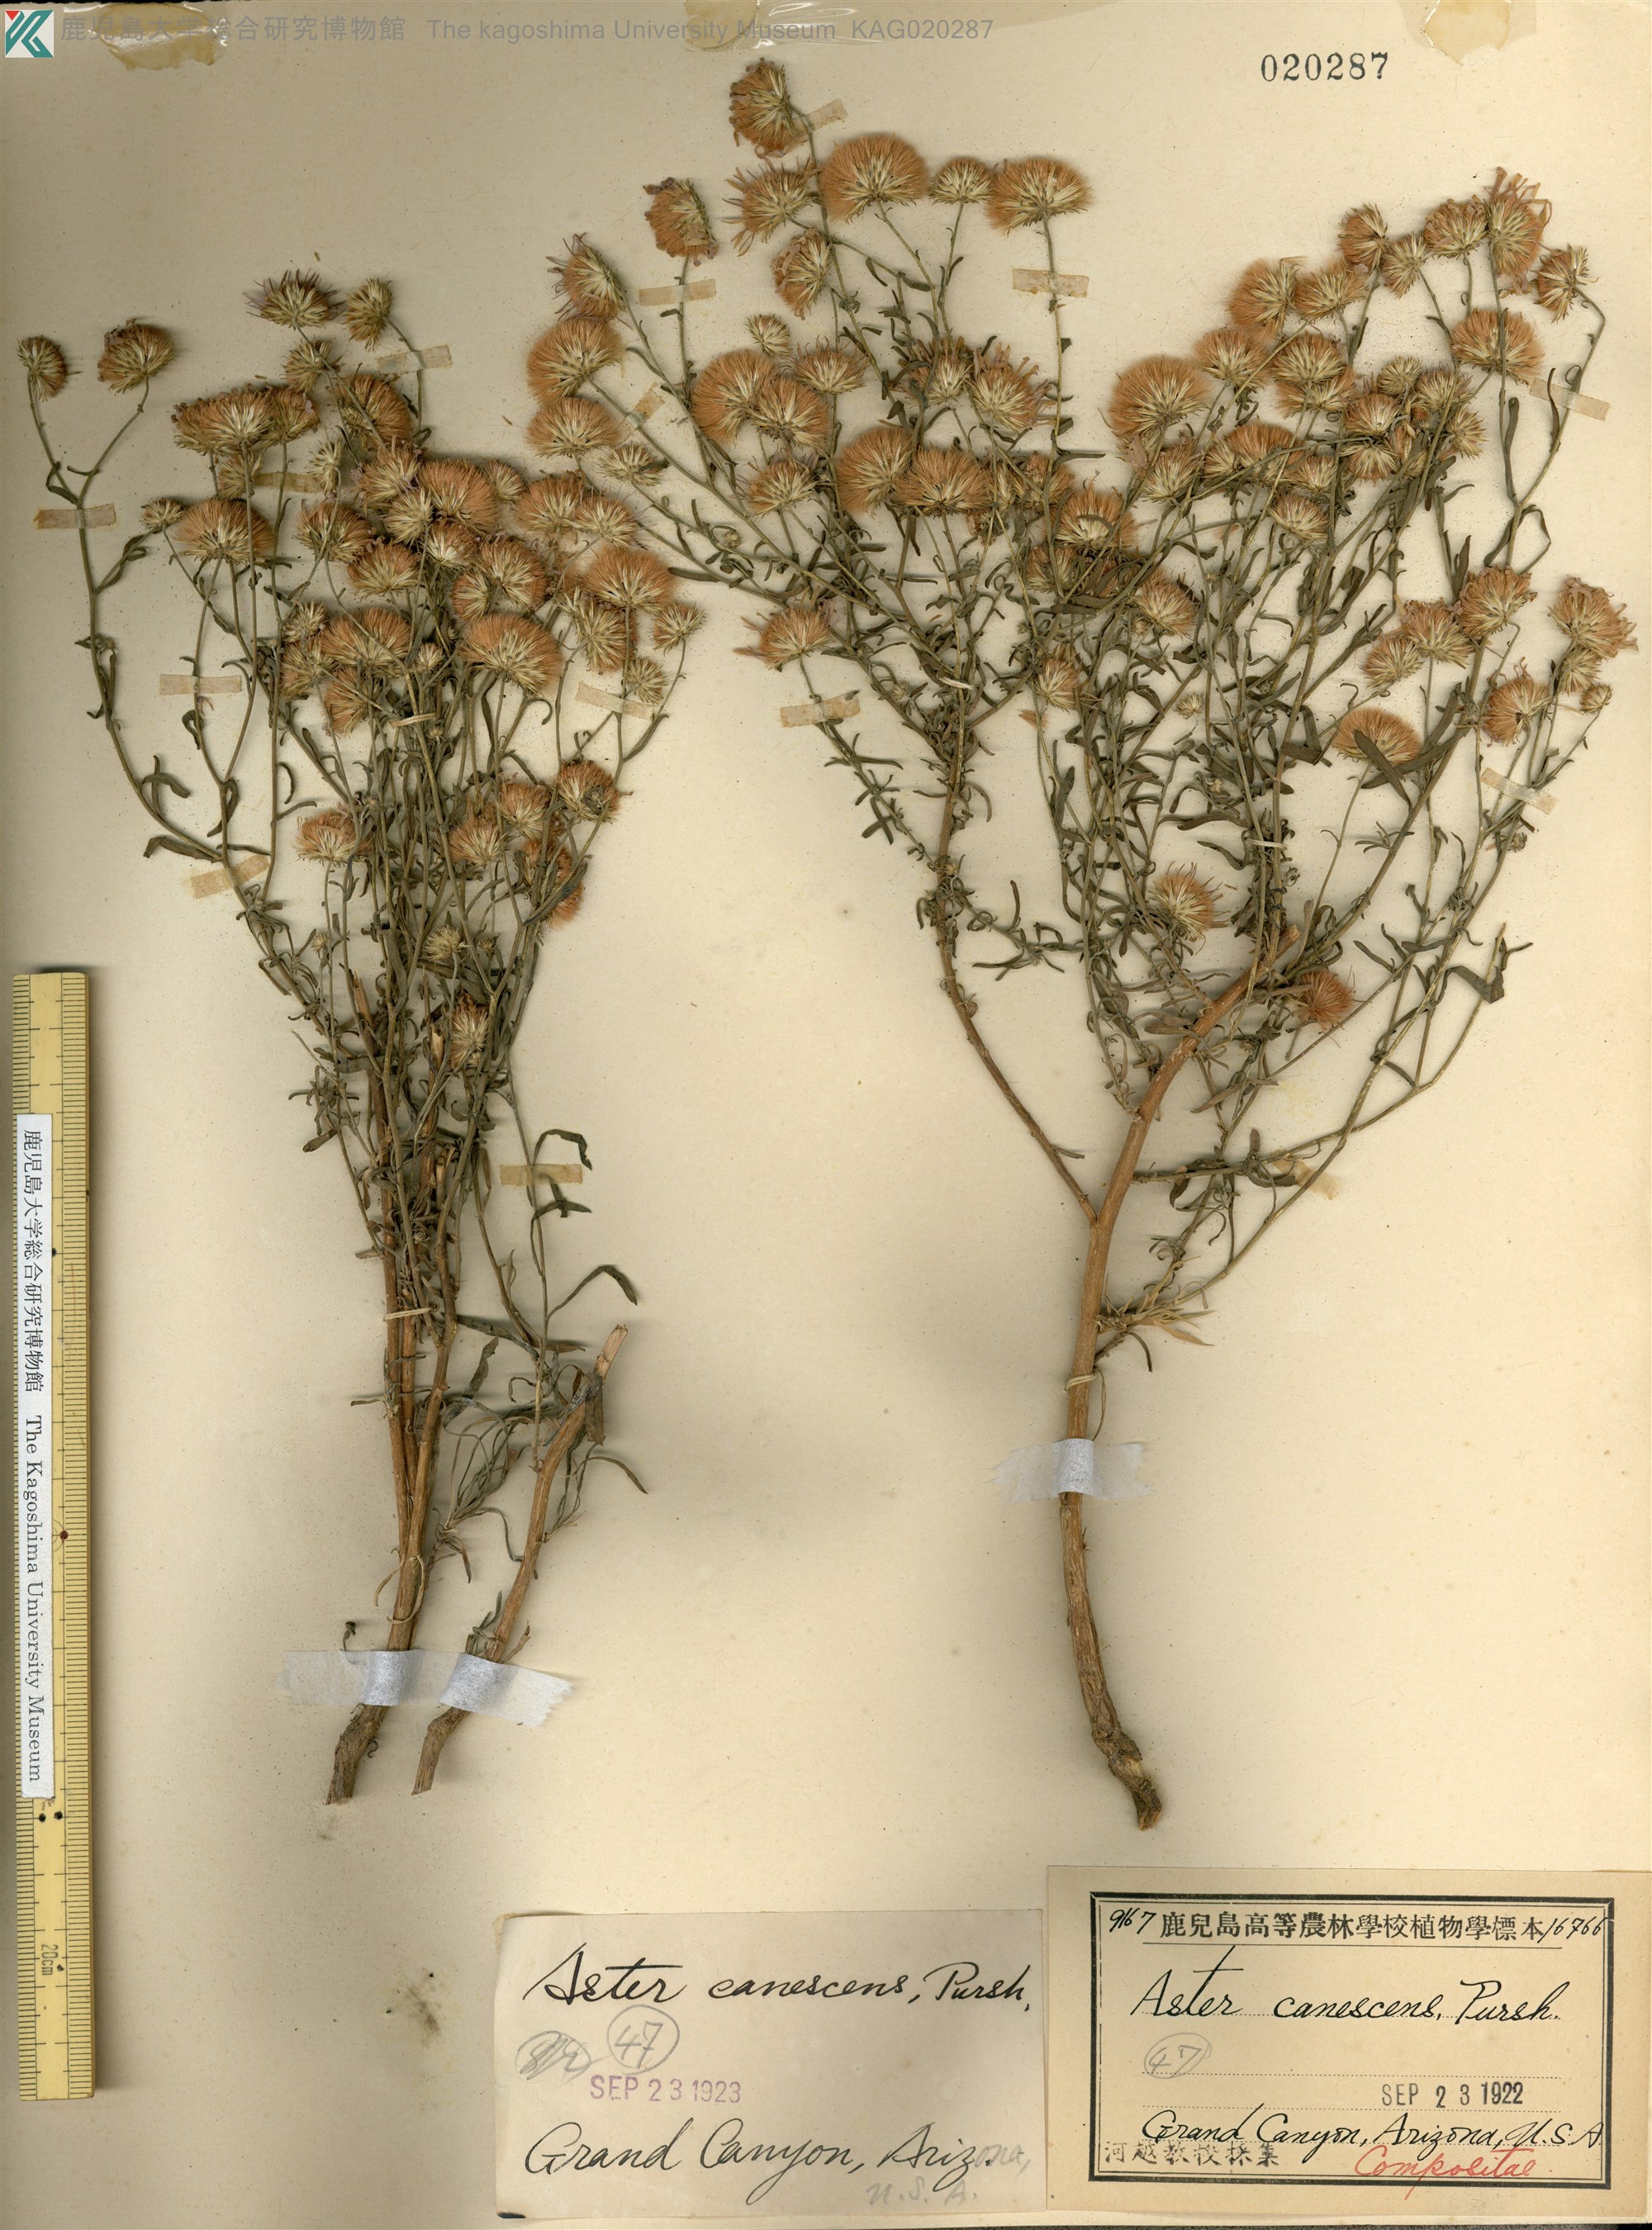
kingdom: Plantae
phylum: Tracheophyta
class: Magnoliopsida
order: Asterales
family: Asteraceae
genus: Dieteria
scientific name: Dieteria canescens
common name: Hoary-aster
